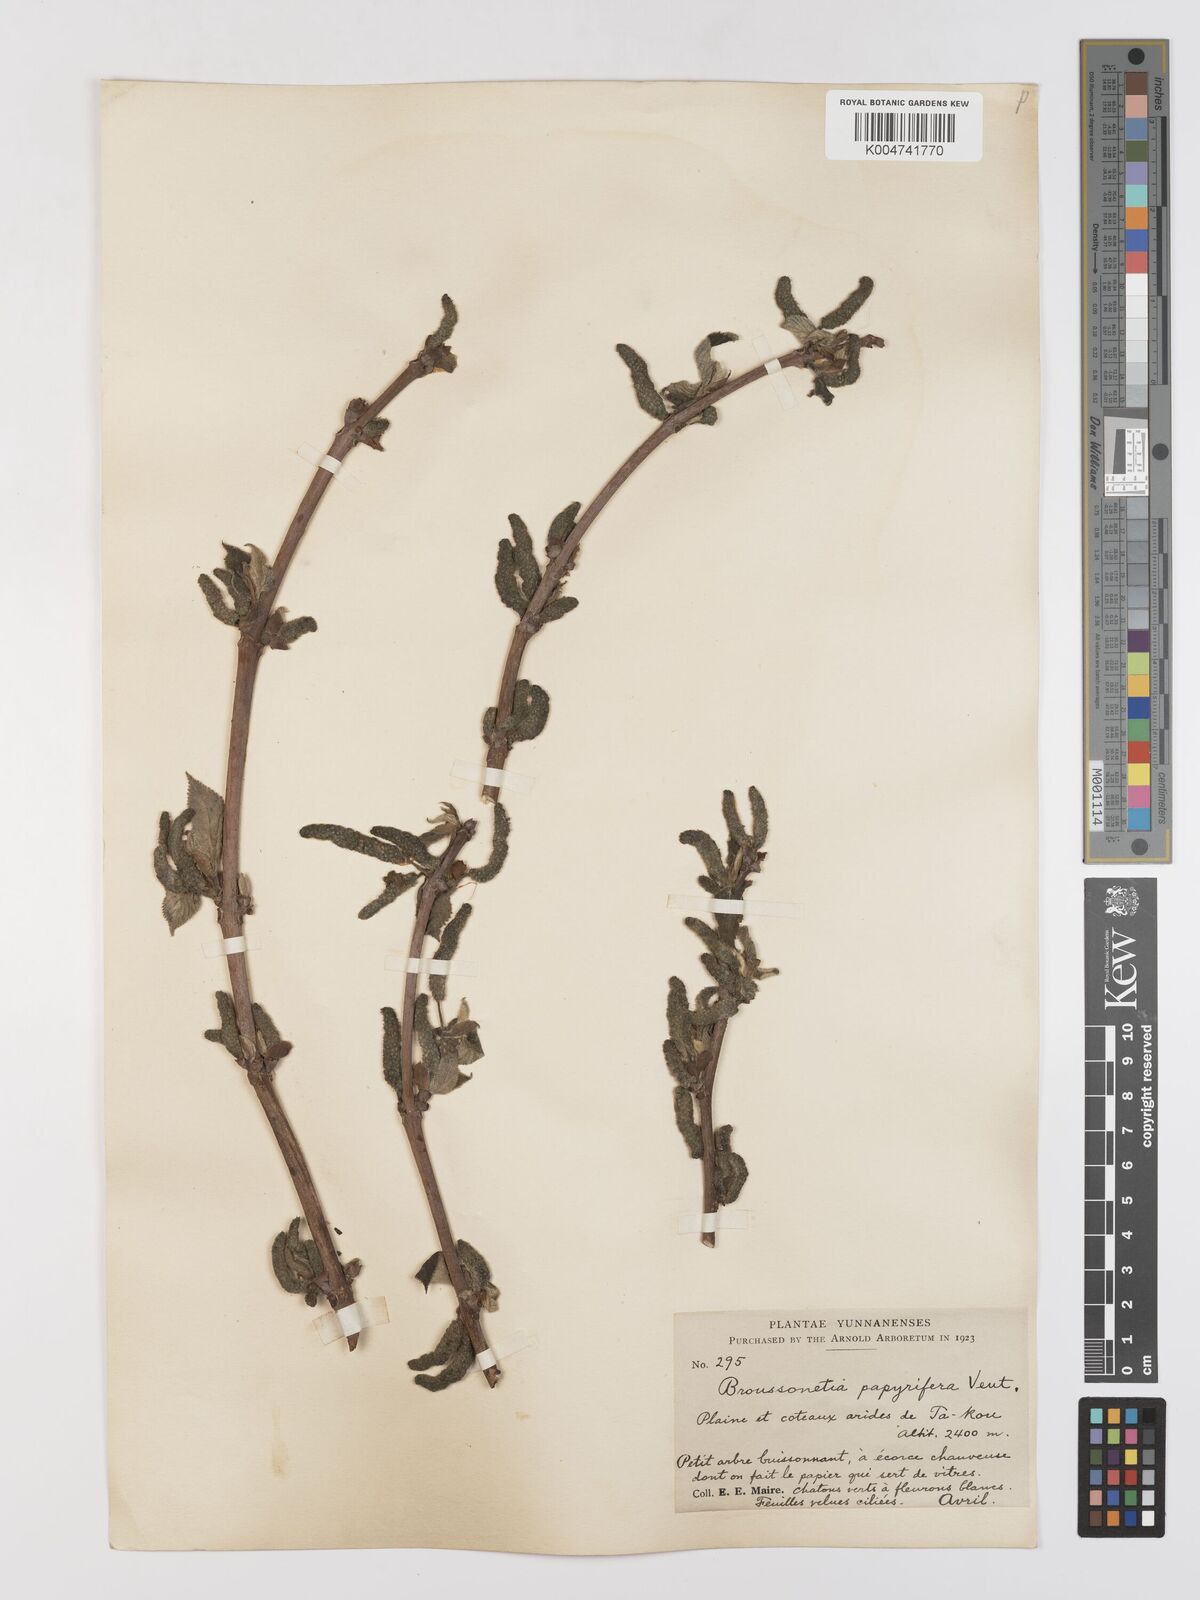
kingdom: Plantae
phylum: Tracheophyta
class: Magnoliopsida
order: Rosales
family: Moraceae
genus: Broussonetia
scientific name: Broussonetia
